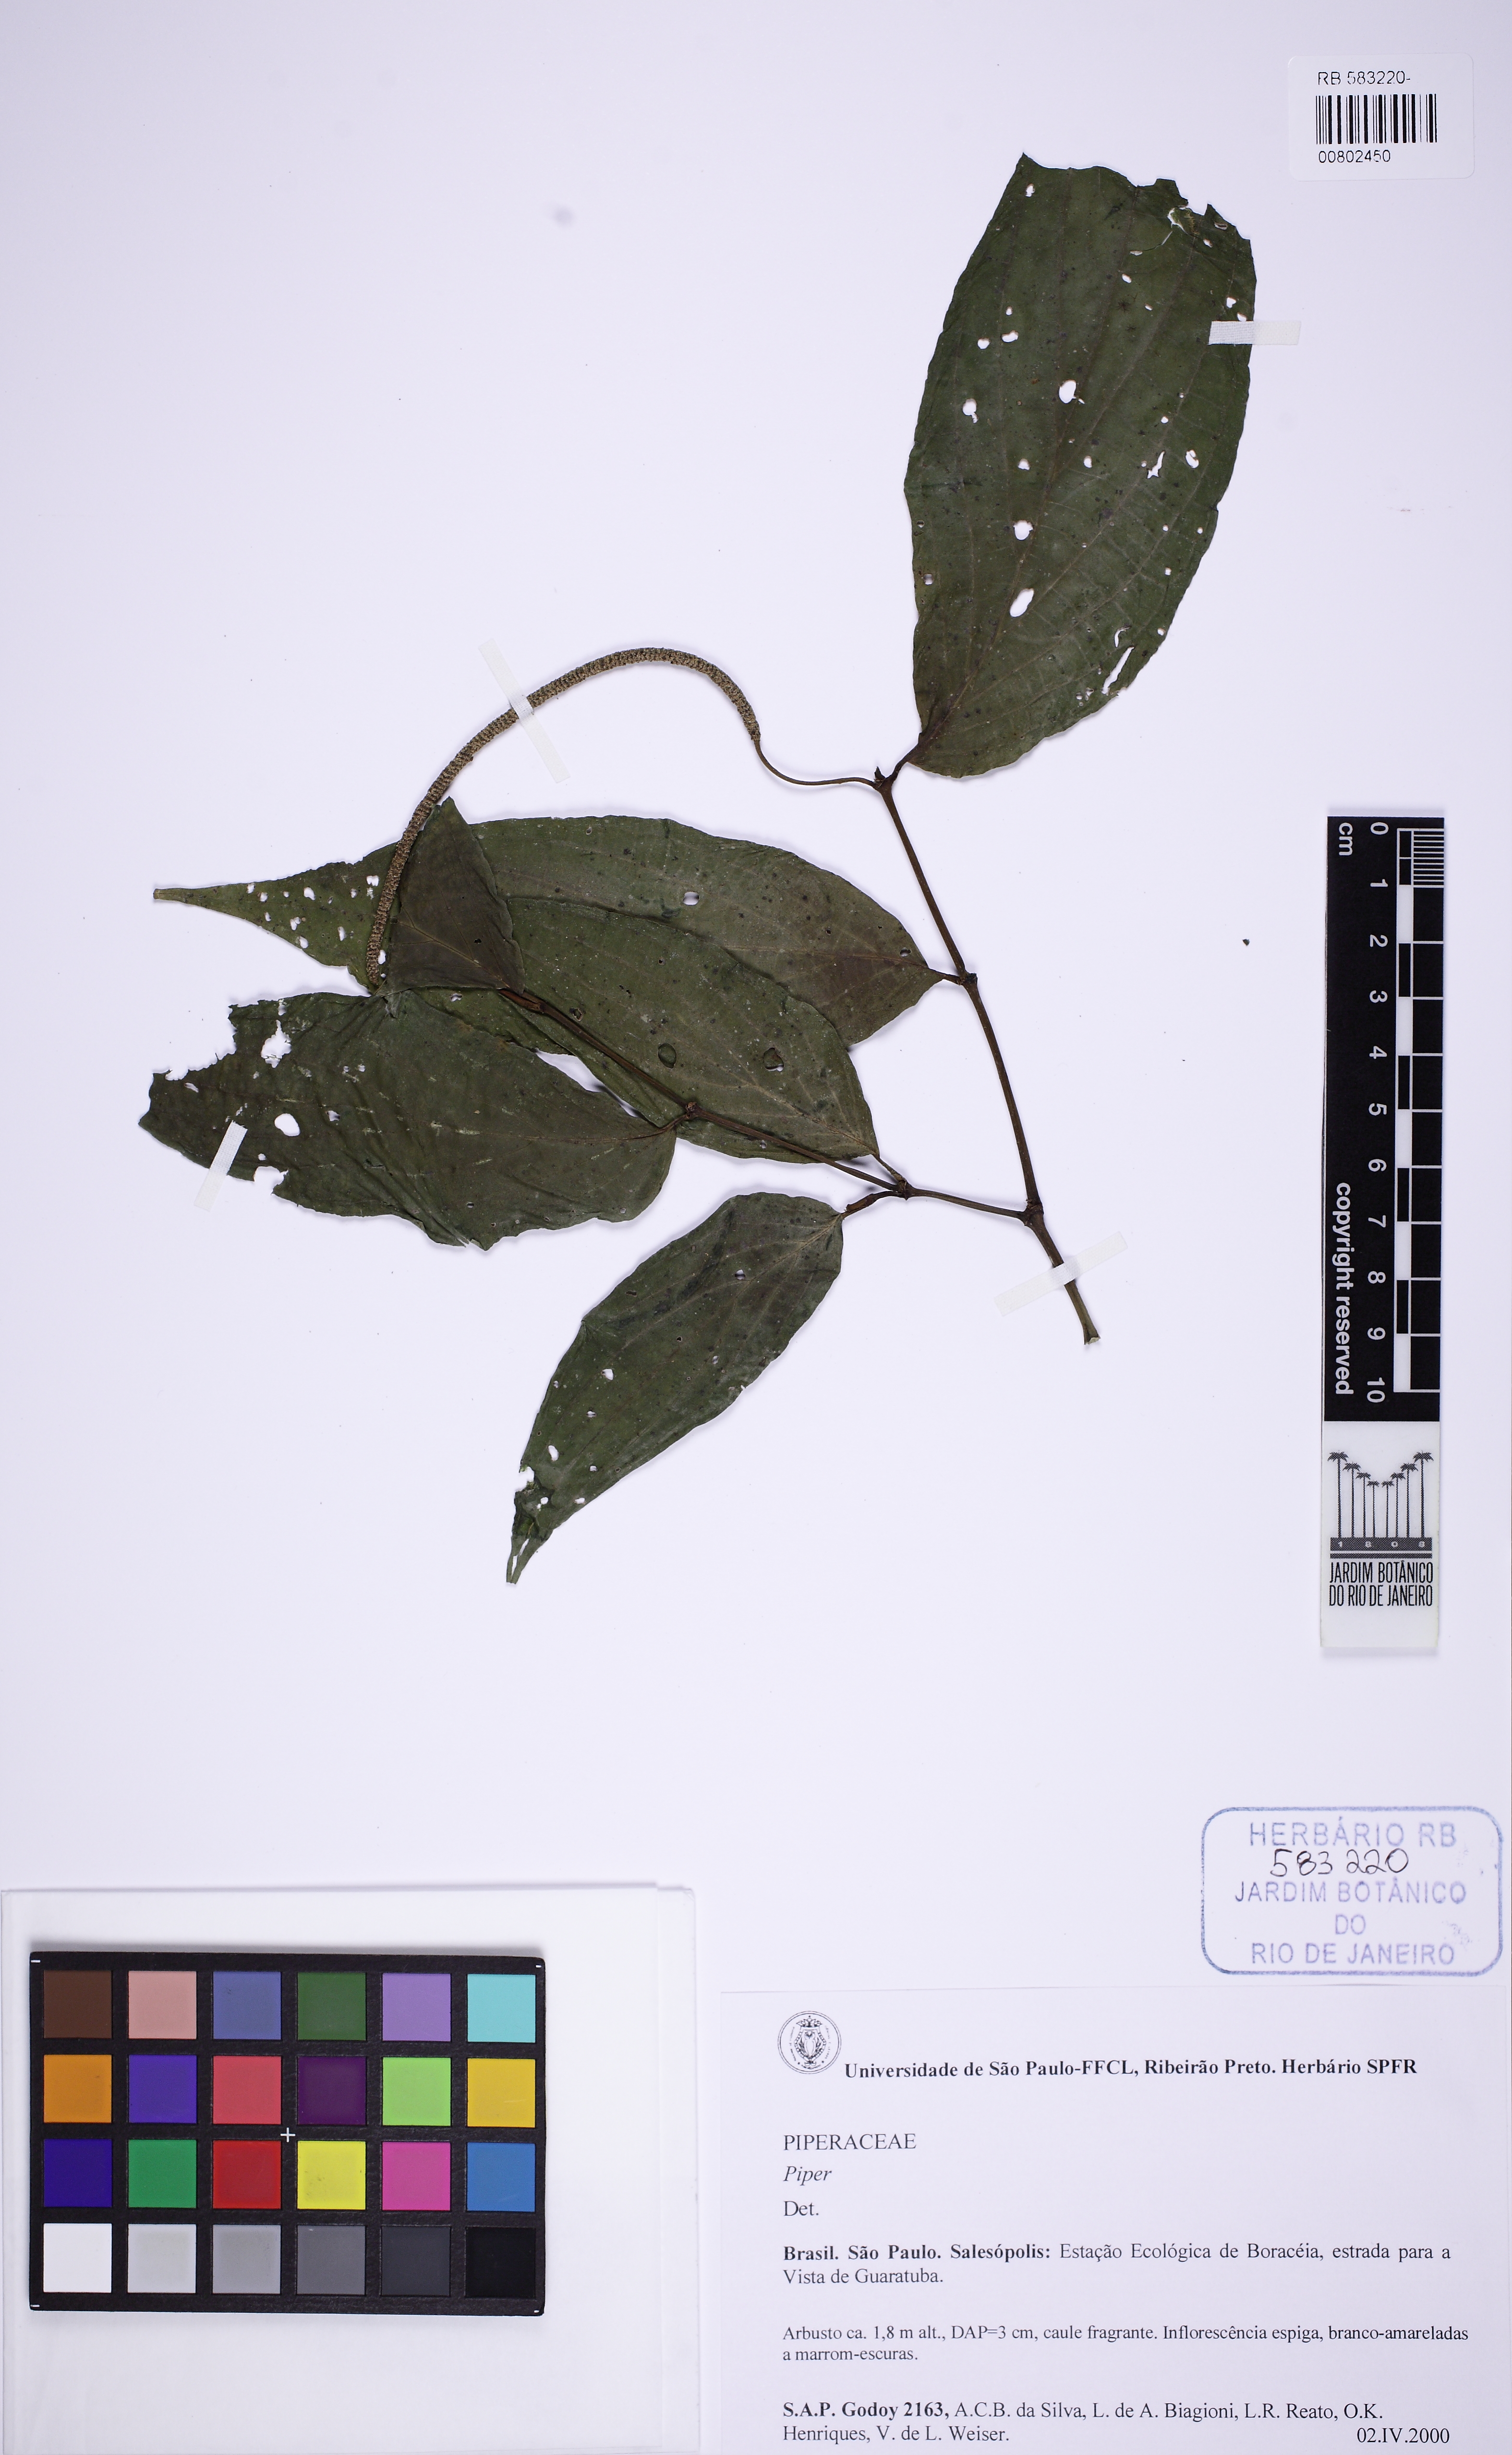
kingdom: Plantae
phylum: Tracheophyta
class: Magnoliopsida
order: Piperales
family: Piperaceae
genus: Piper
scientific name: Piper
